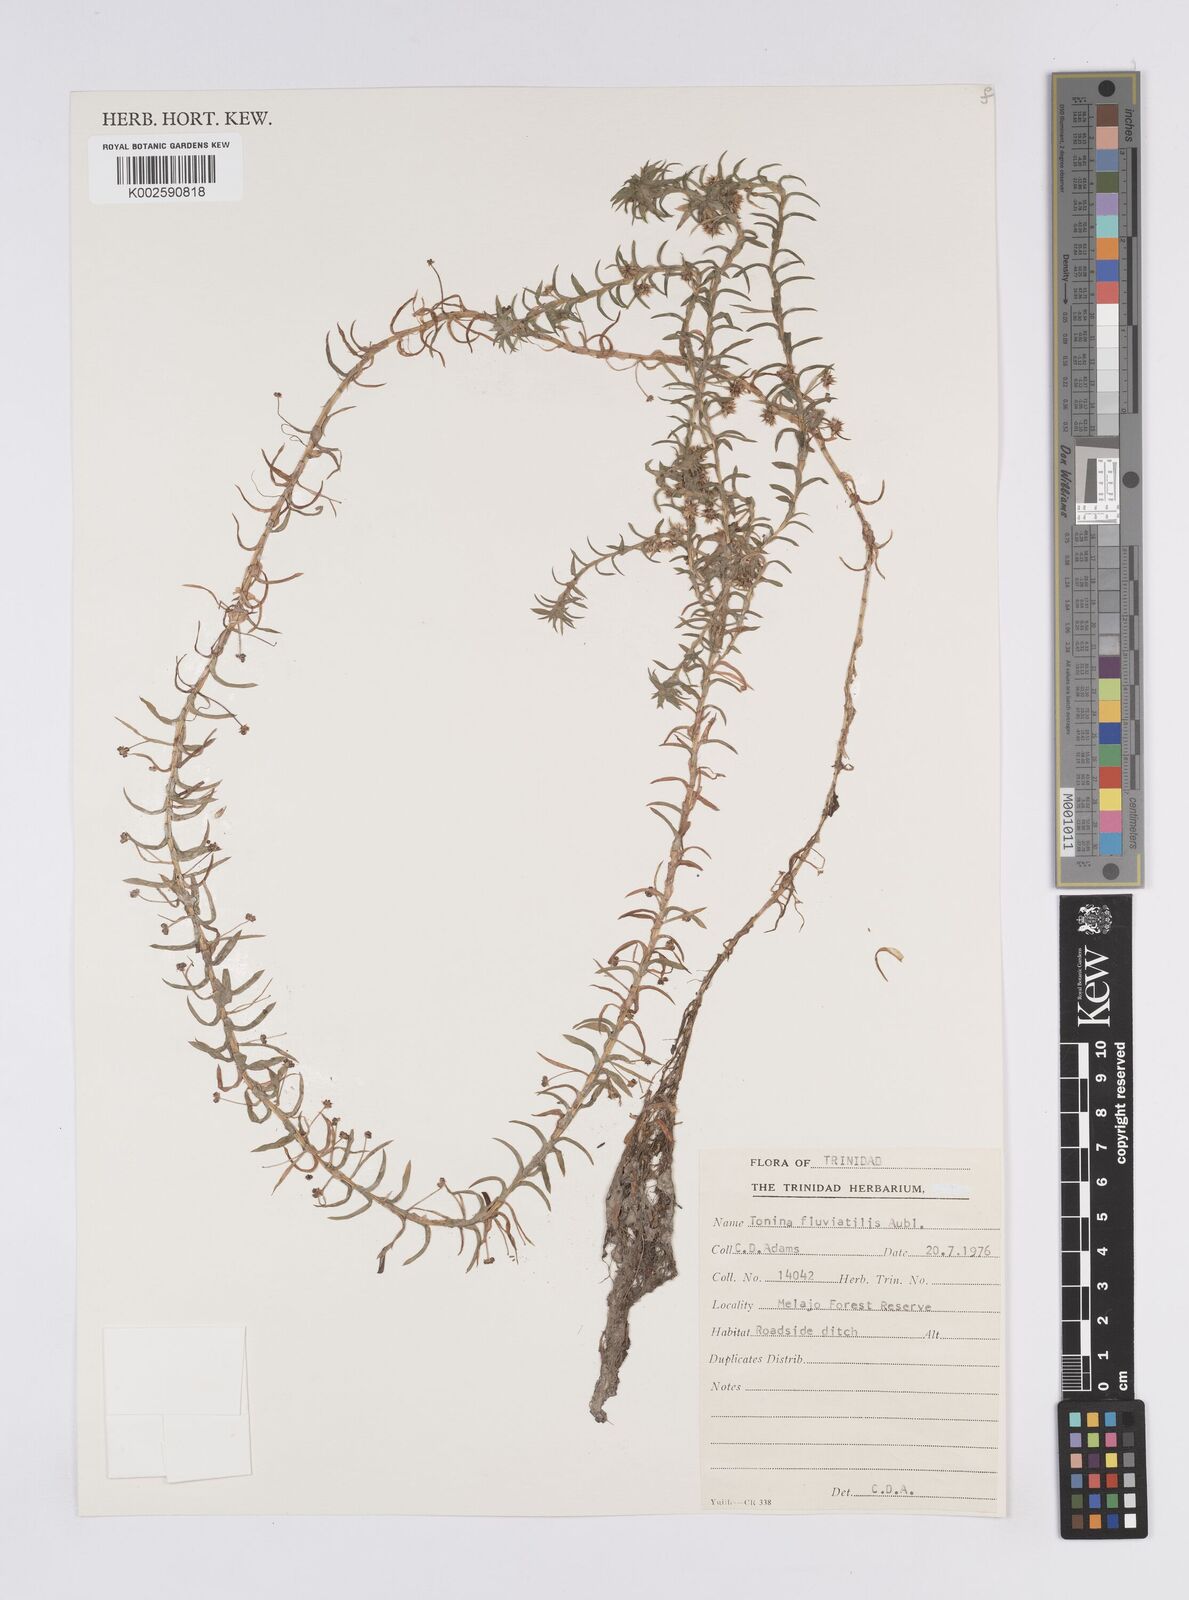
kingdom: Plantae
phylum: Tracheophyta
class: Liliopsida
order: Poales
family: Eriocaulaceae
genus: Paepalanthus
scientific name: Paepalanthus fluviatilis
